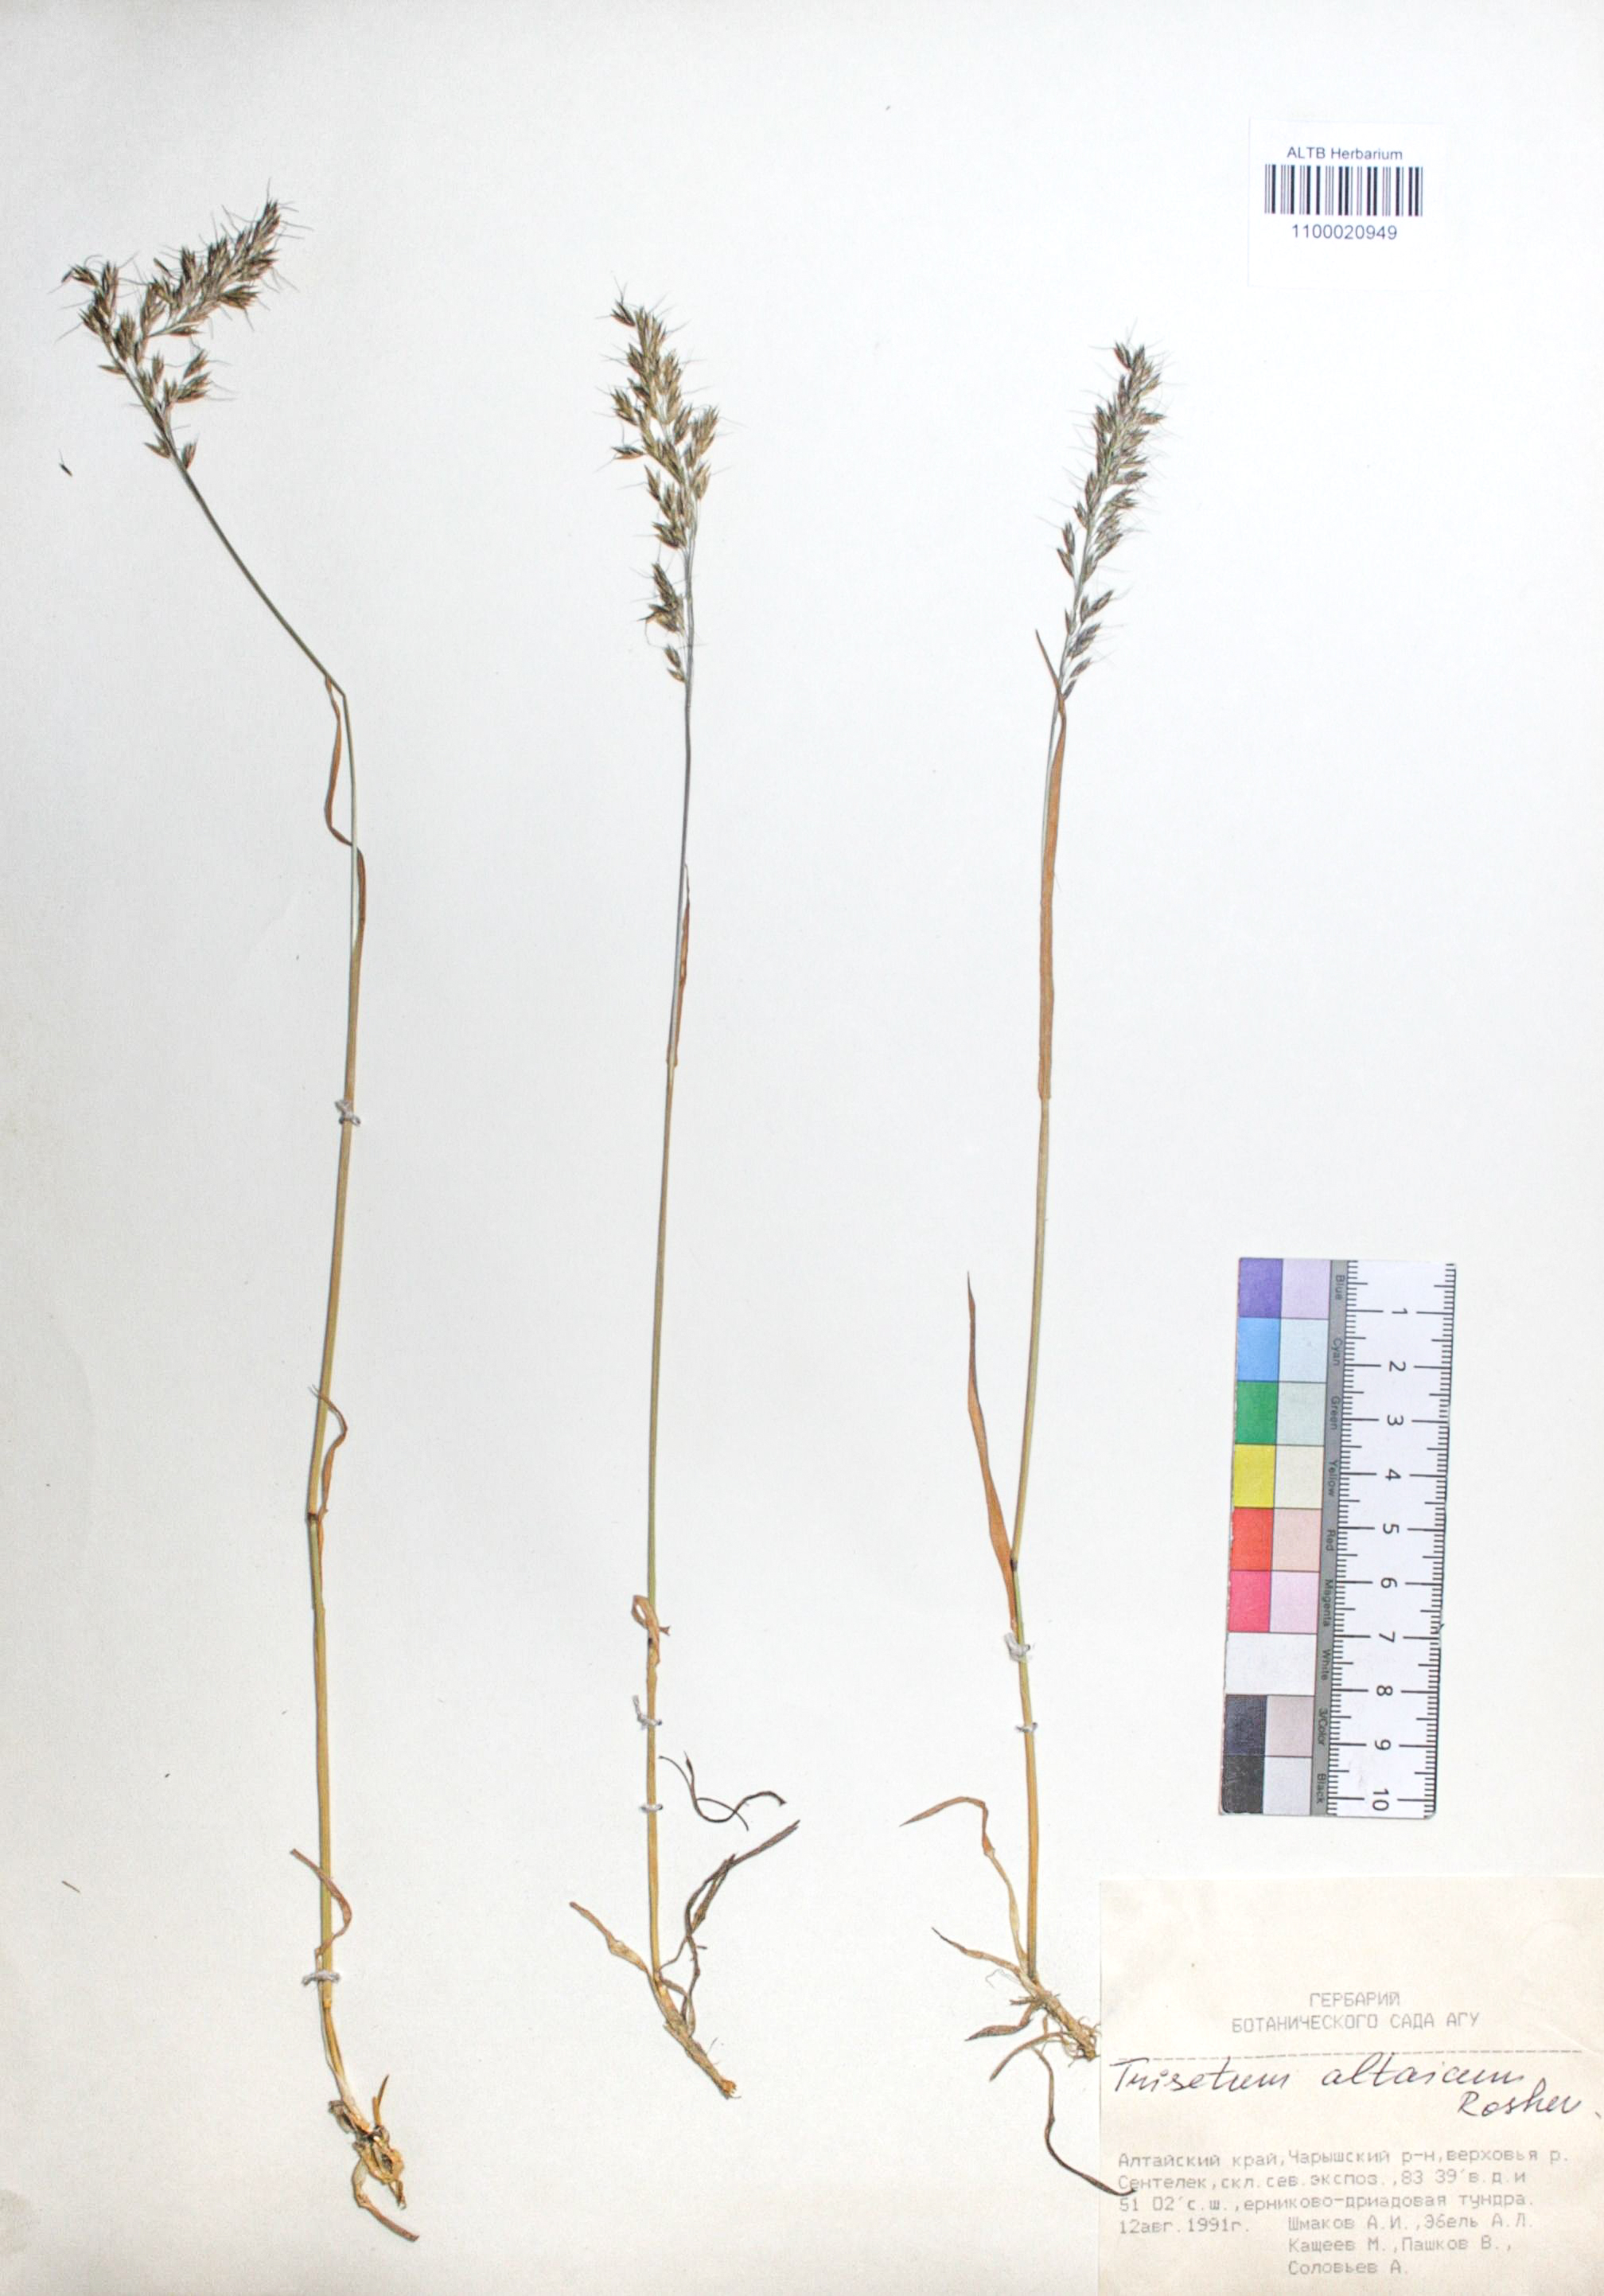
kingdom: Plantae
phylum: Tracheophyta
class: Liliopsida
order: Poales
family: Poaceae
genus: Trisetum
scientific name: Trisetum altaicum
